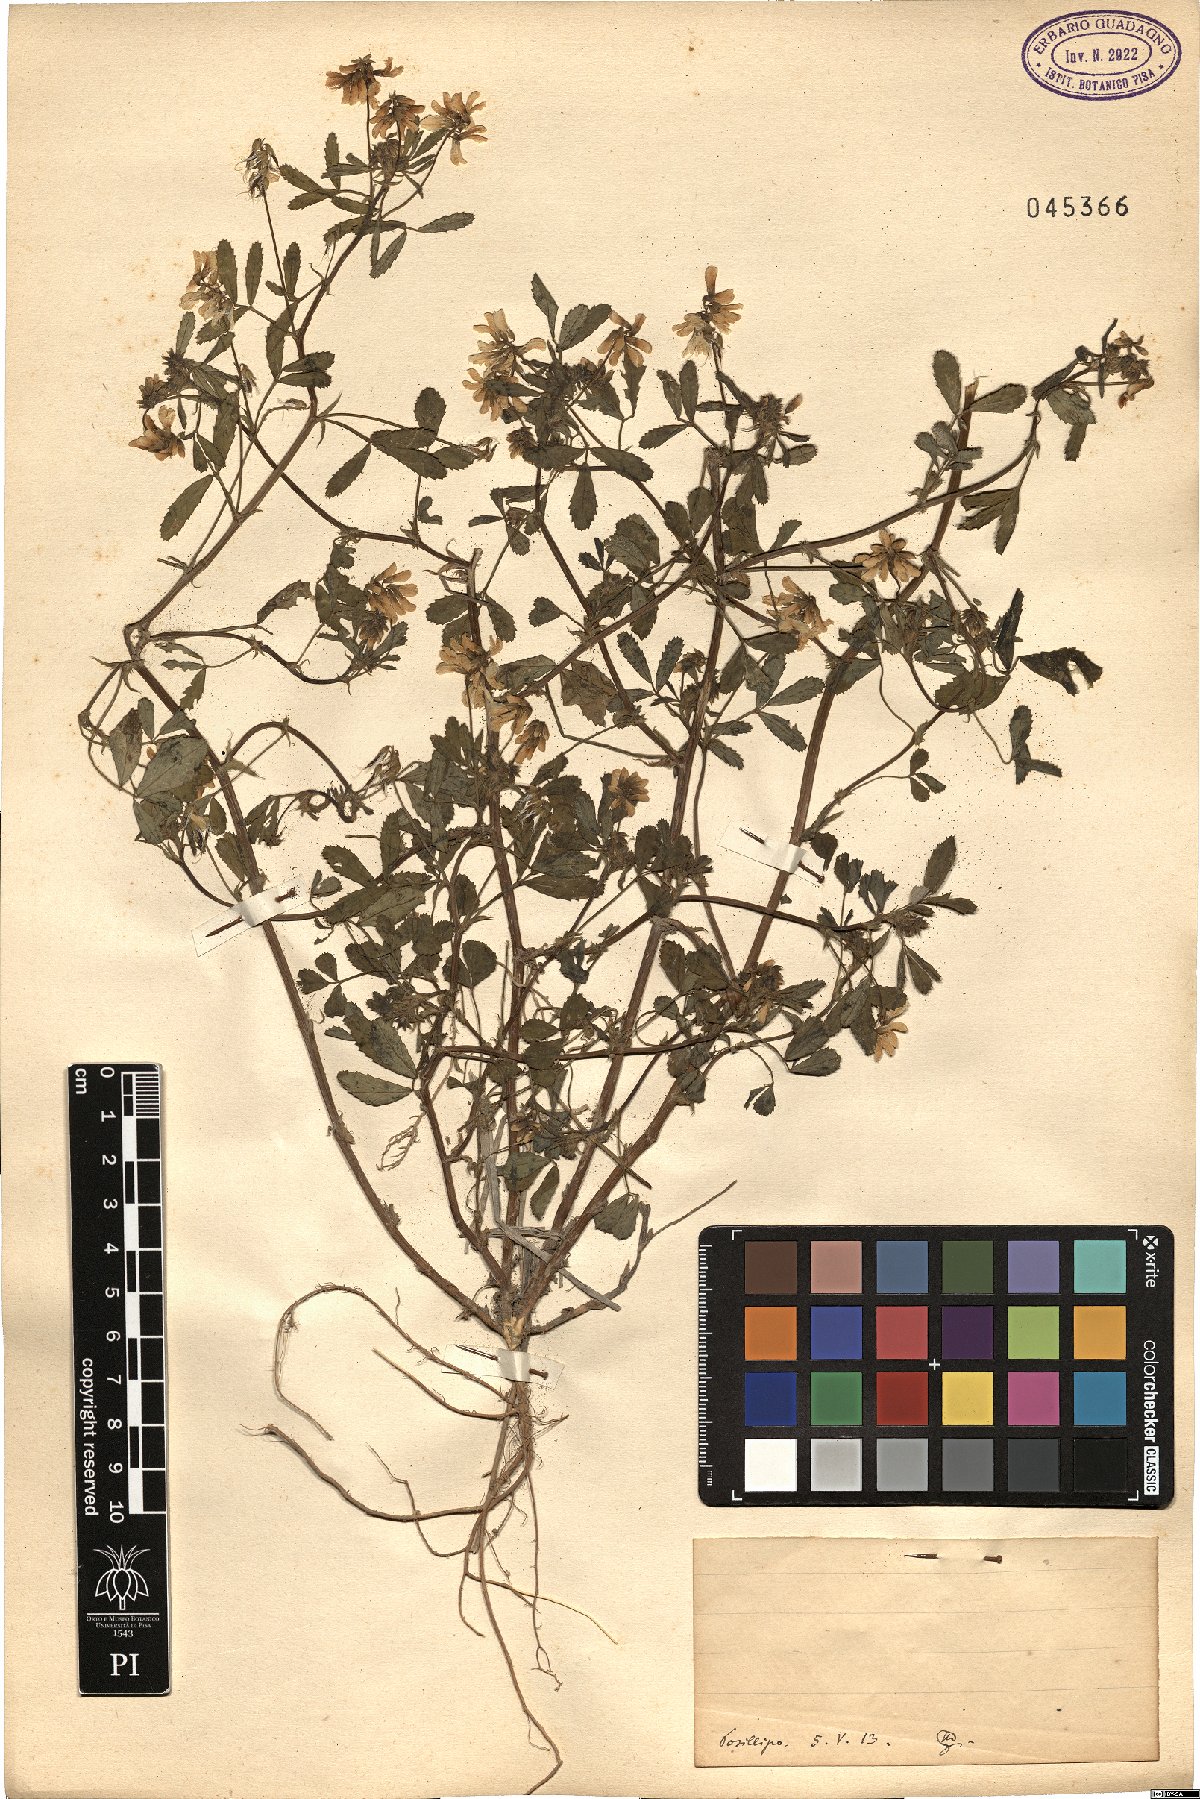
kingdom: Plantae
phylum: Tracheophyta
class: Magnoliopsida
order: Fabales
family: Fabaceae
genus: Trigonella
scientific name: Trigonella
